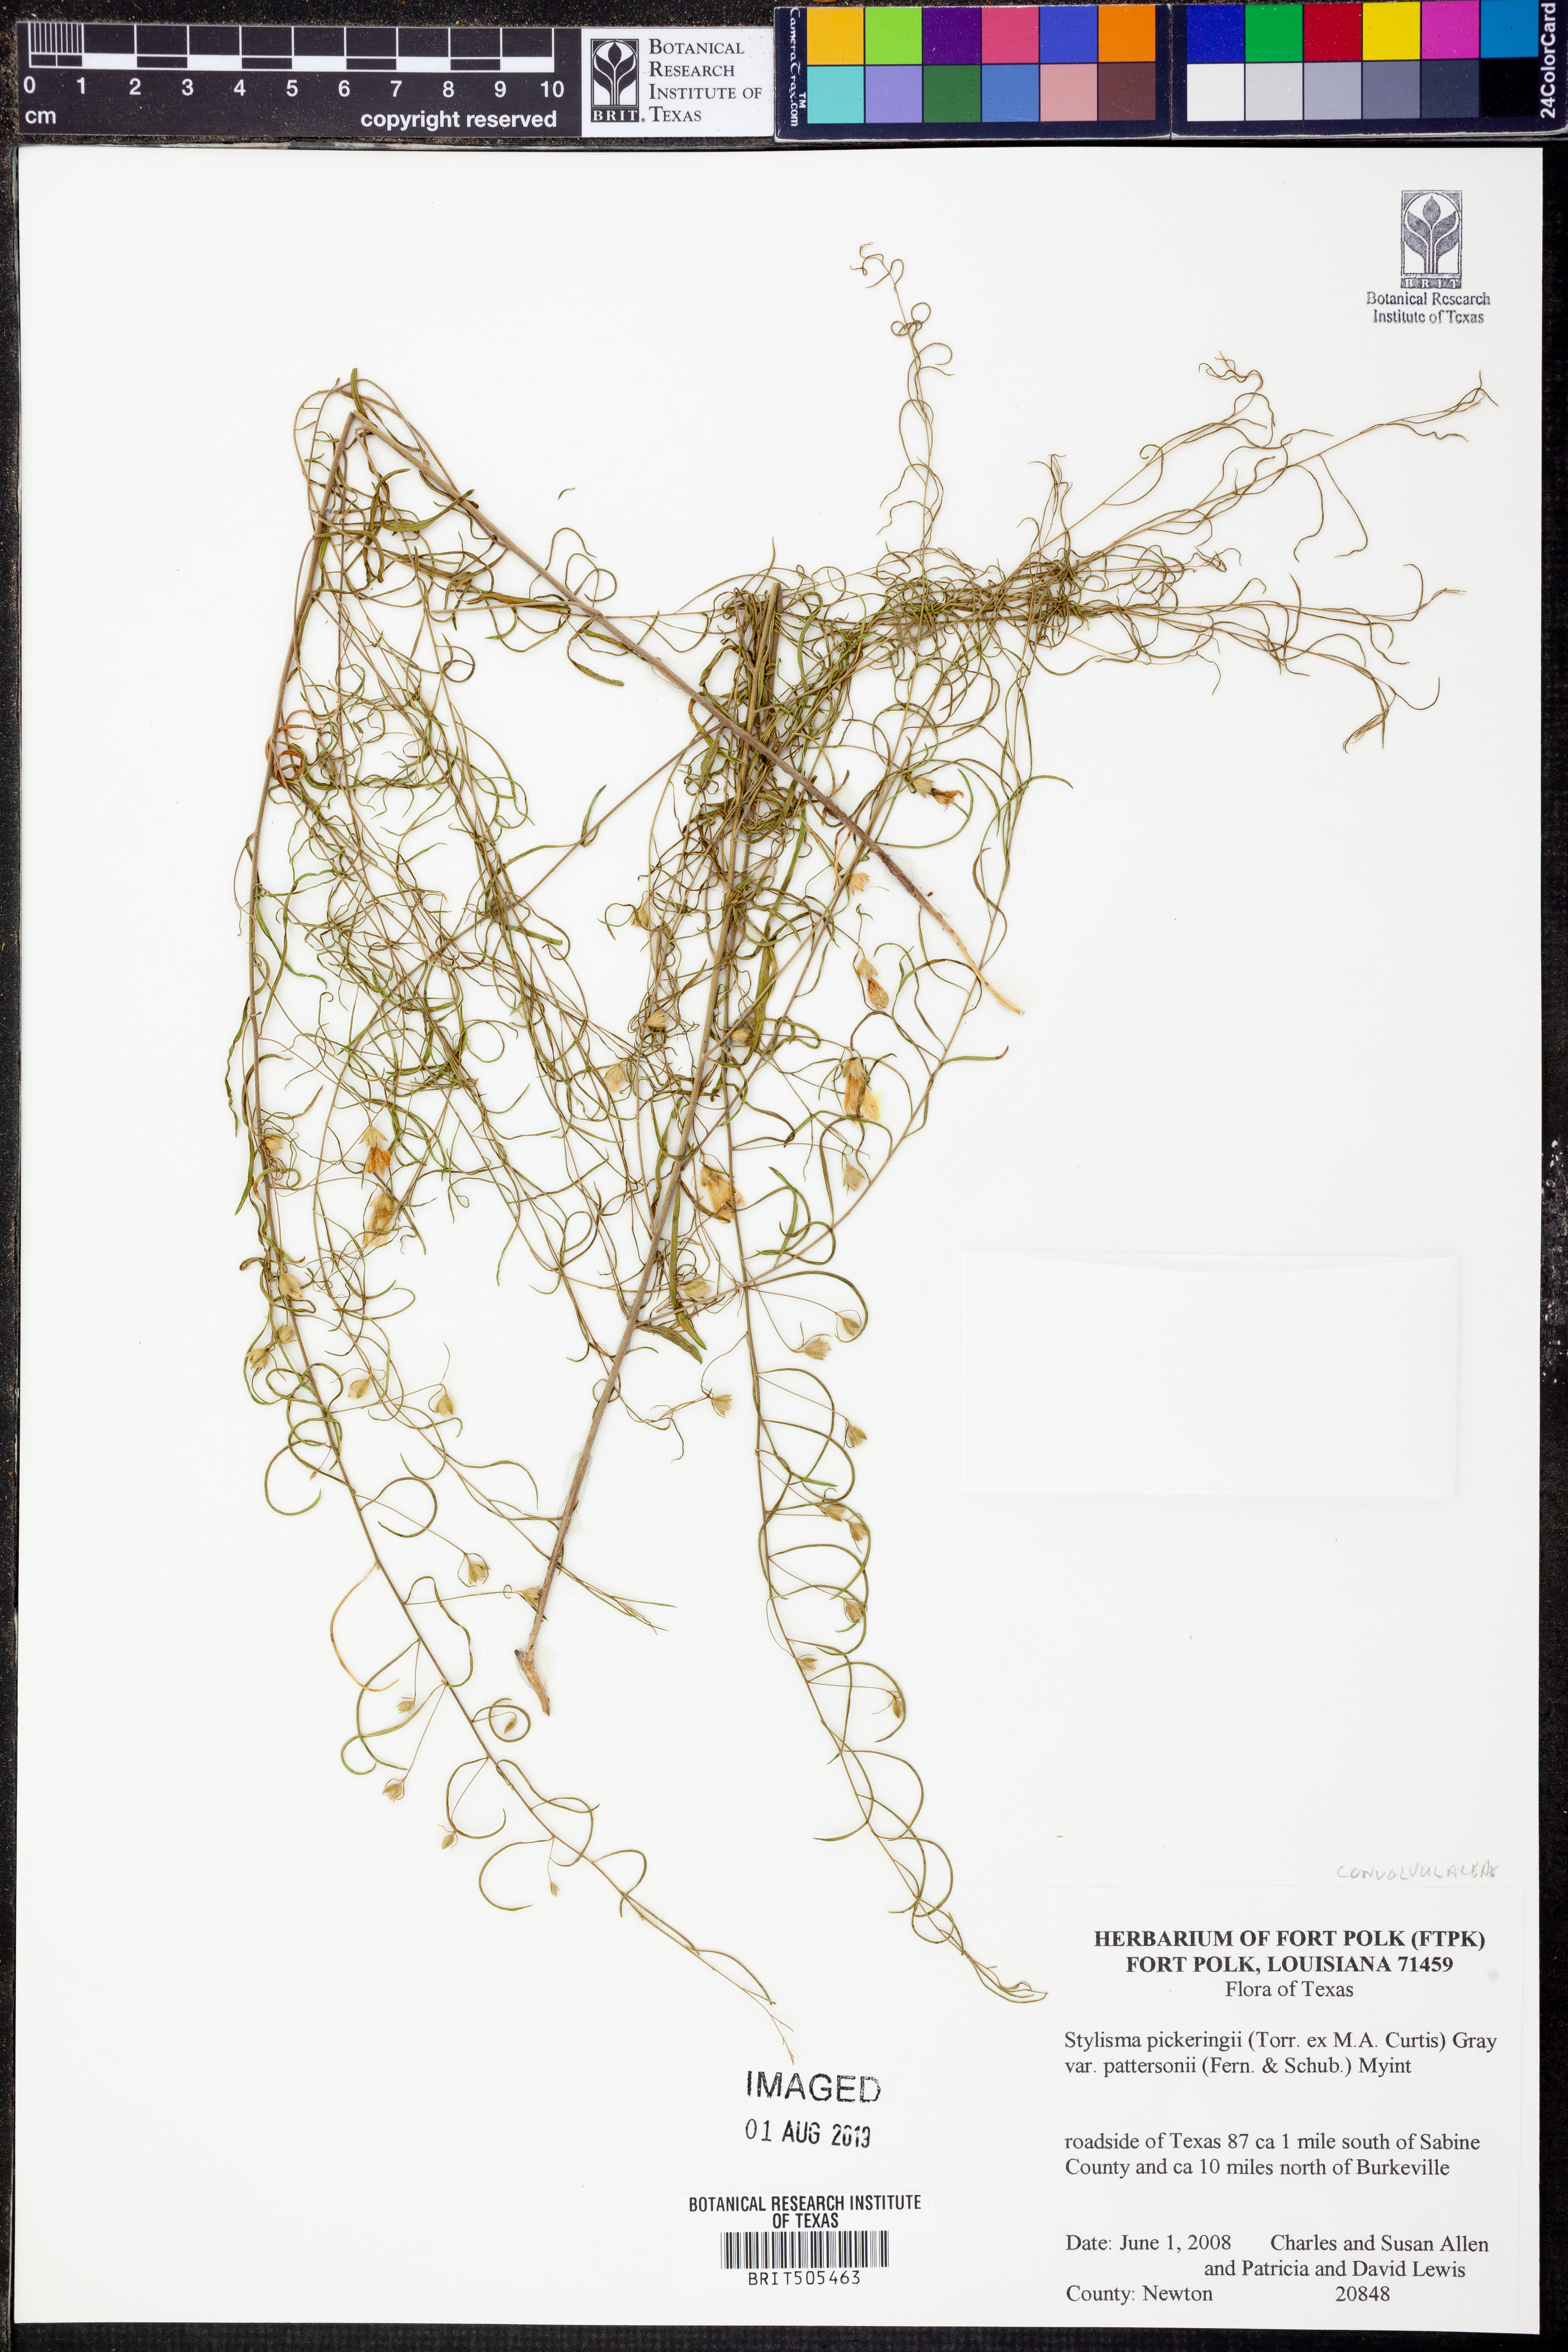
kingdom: Plantae
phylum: Tracheophyta
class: Magnoliopsida
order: Solanales
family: Convolvulaceae
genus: Stylisma
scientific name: Stylisma pickeringii
